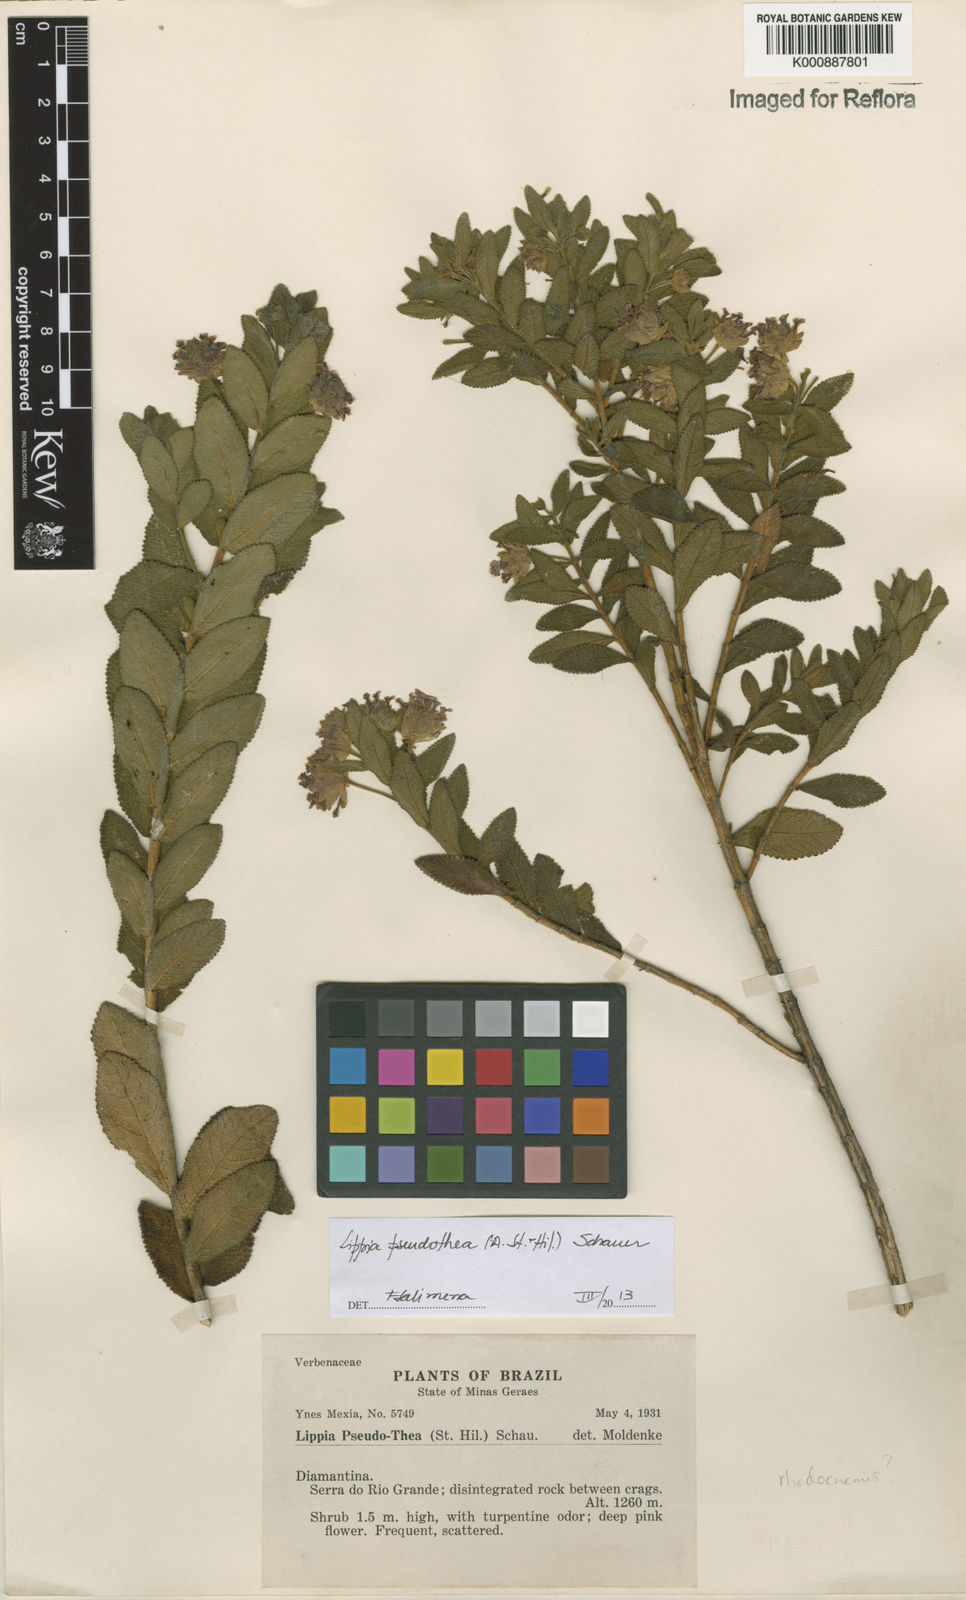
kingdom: Plantae
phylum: Tracheophyta
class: Magnoliopsida
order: Lamiales
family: Verbenaceae
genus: Lippia
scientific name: Lippia
